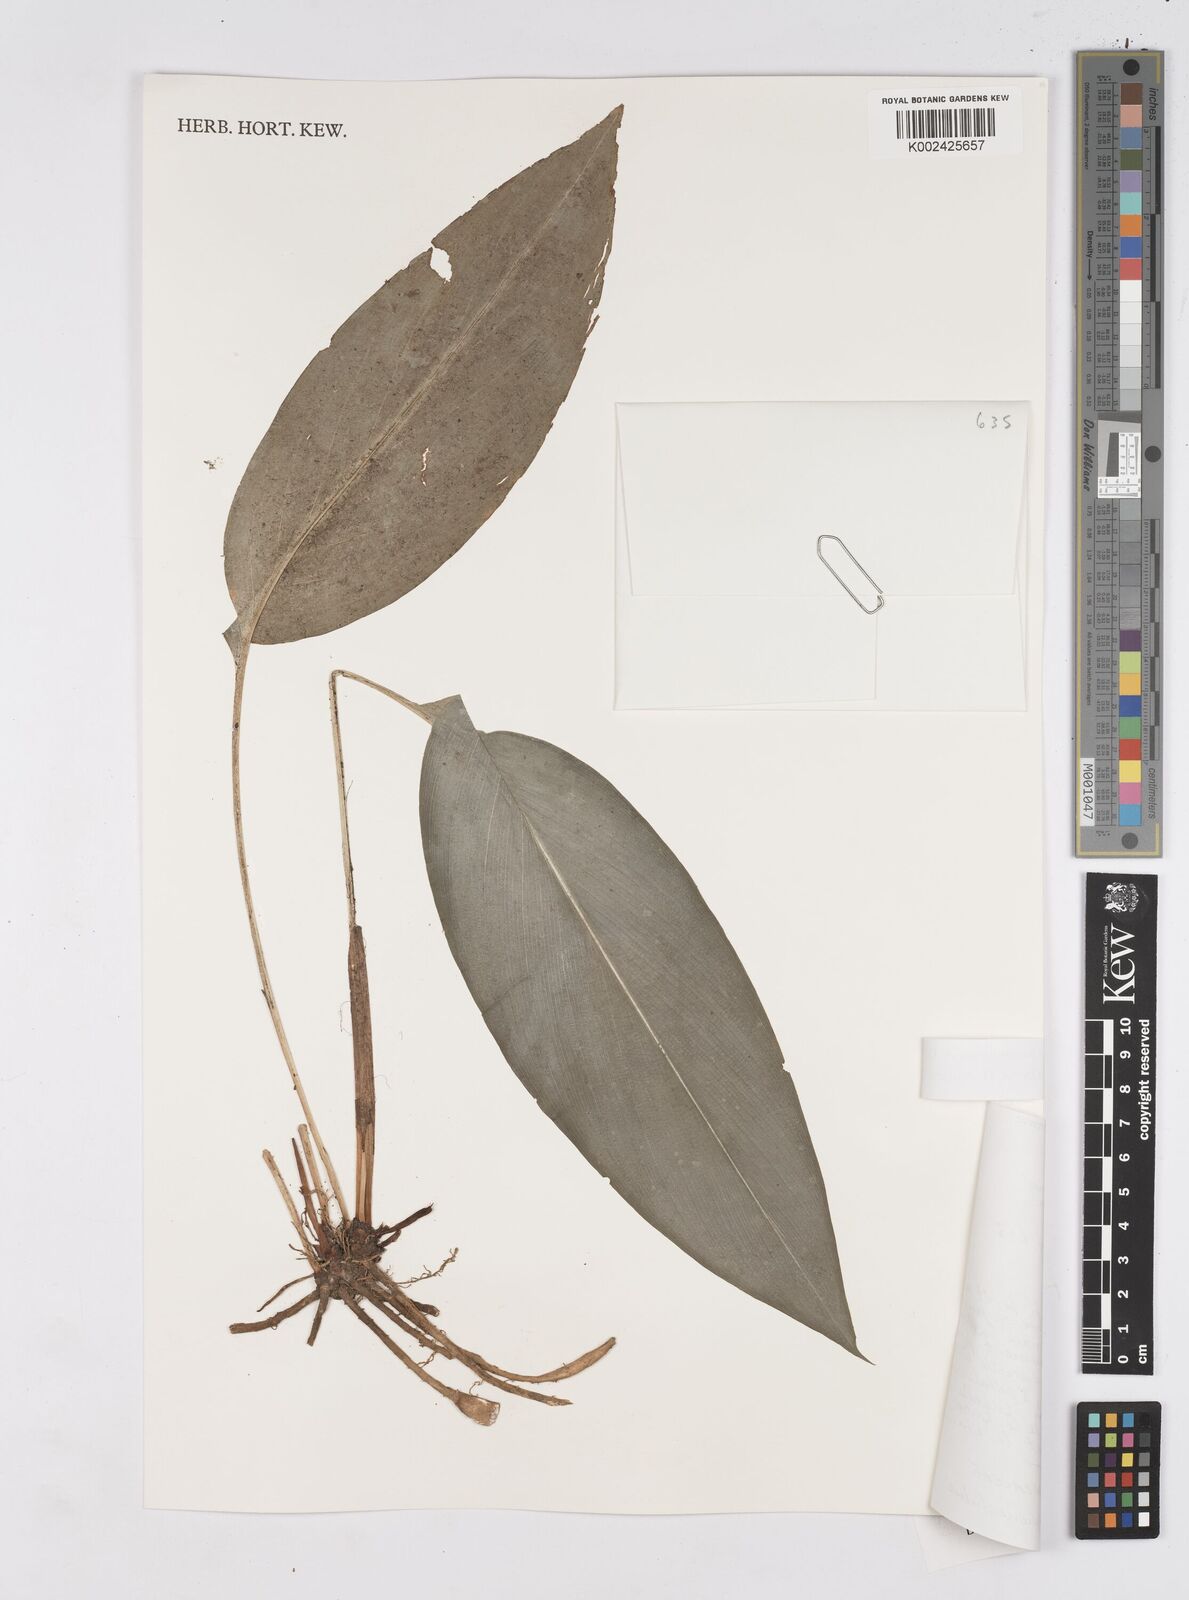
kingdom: Plantae
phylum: Tracheophyta
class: Liliopsida
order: Zingiberales
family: Zingiberaceae
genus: Siphonochilus
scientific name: Siphonochilus bambutiorum
